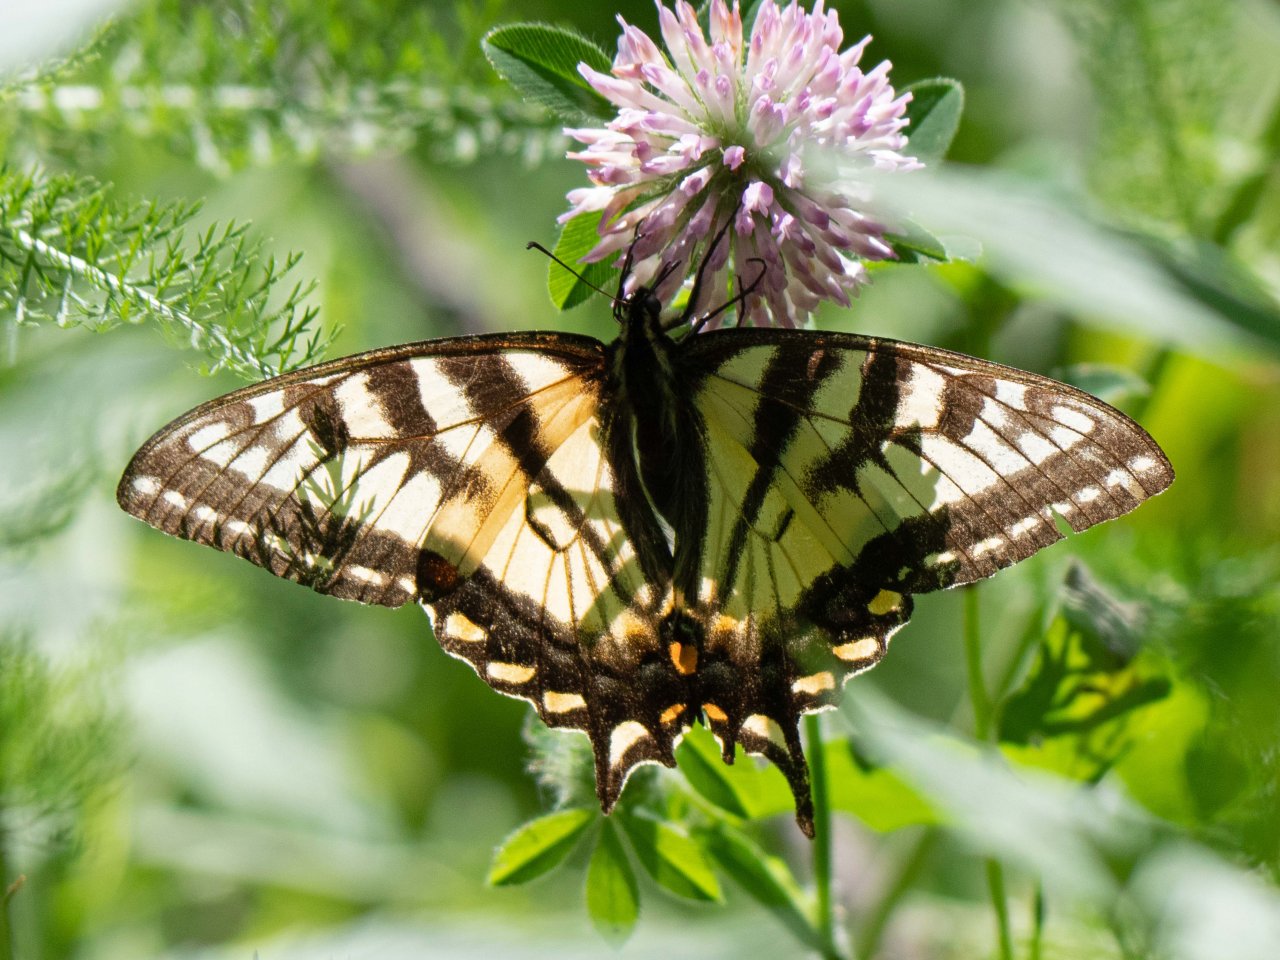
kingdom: Animalia
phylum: Arthropoda
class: Insecta
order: Lepidoptera
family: Papilionidae
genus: Pterourus
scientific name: Pterourus canadensis
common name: Canadian Tiger Swallowtail
